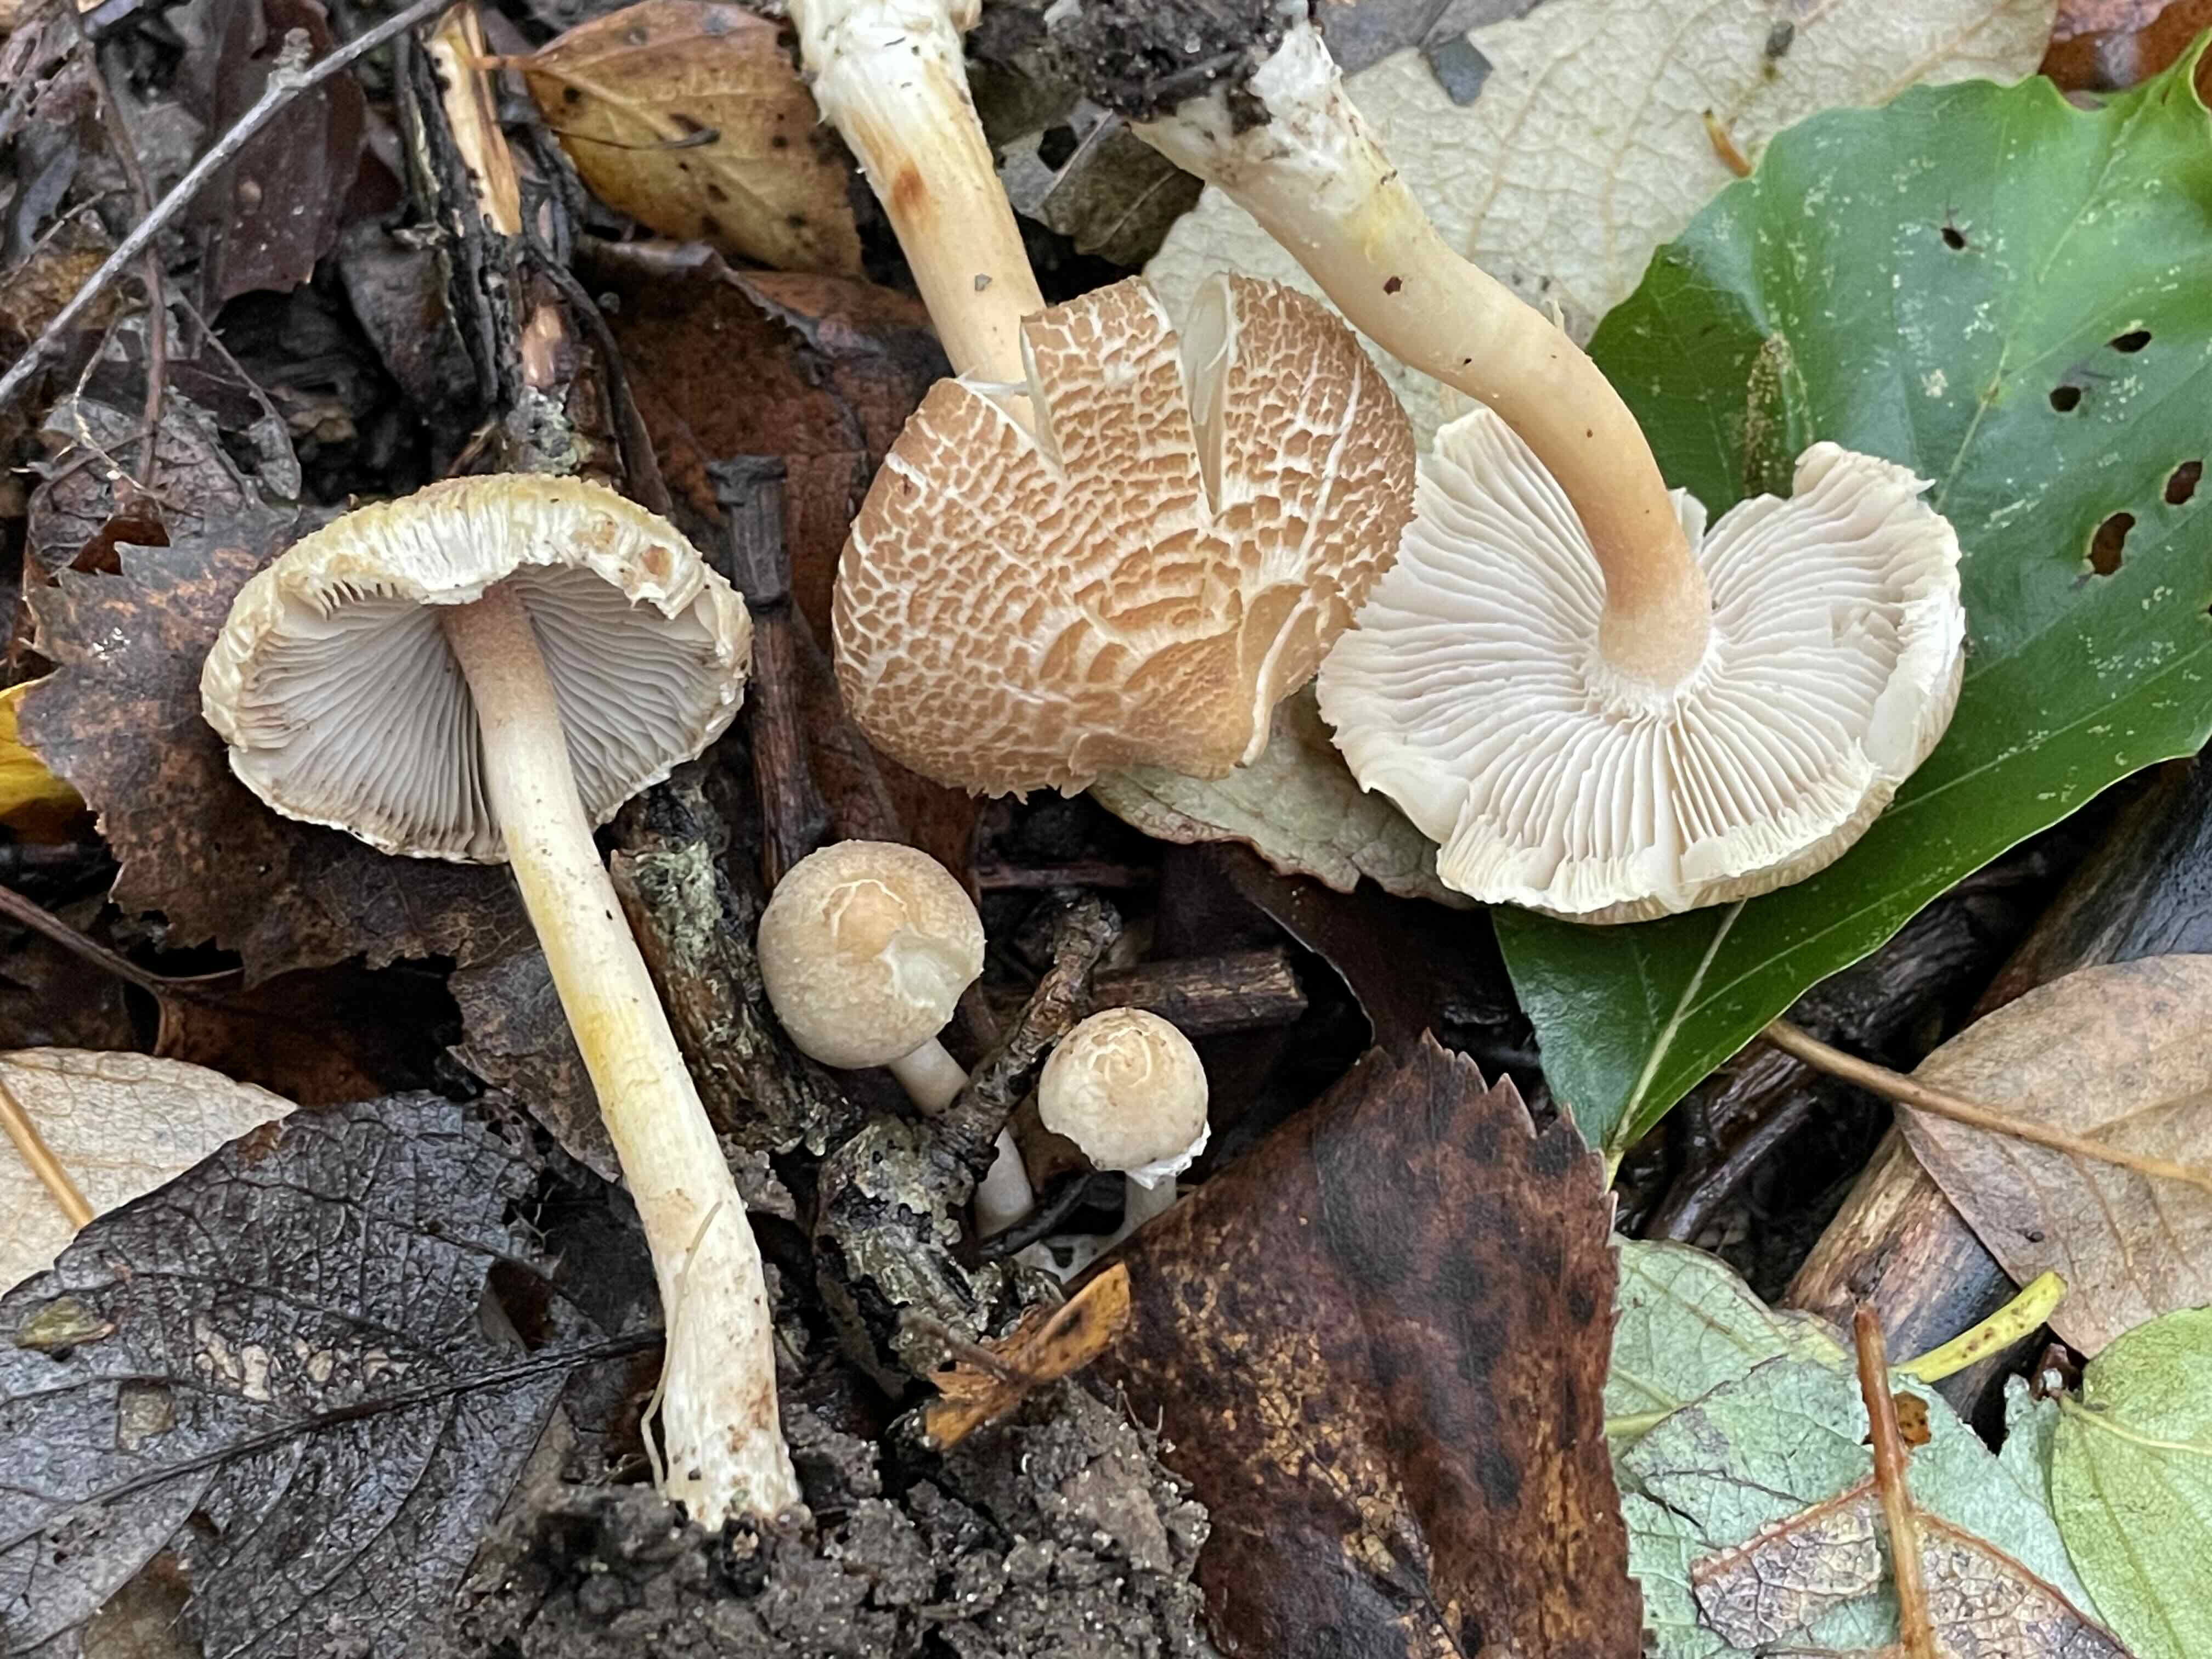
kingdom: Fungi
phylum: Basidiomycota
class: Agaricomycetes
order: Agaricales
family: Inocybaceae
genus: Inocybe
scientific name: Inocybe
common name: trævlhat
